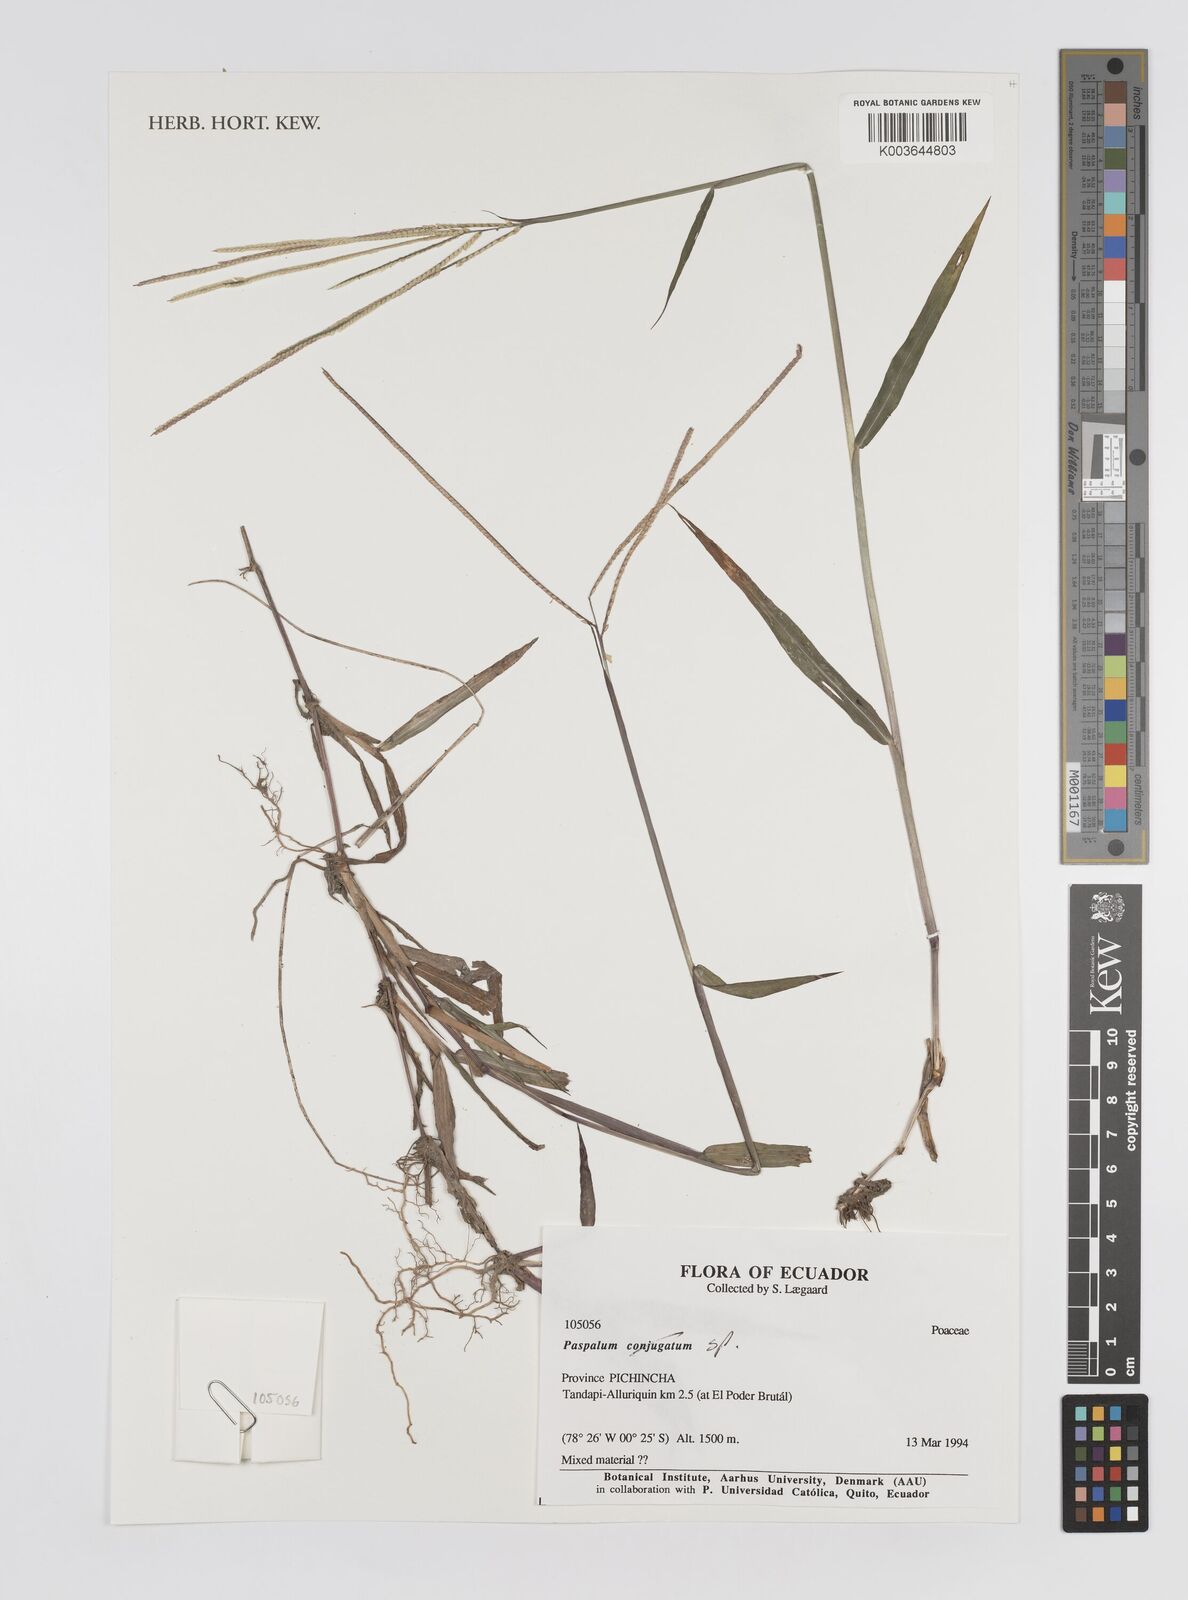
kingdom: Plantae
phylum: Tracheophyta
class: Liliopsida
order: Poales
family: Poaceae
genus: Paspalum
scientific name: Paspalum
